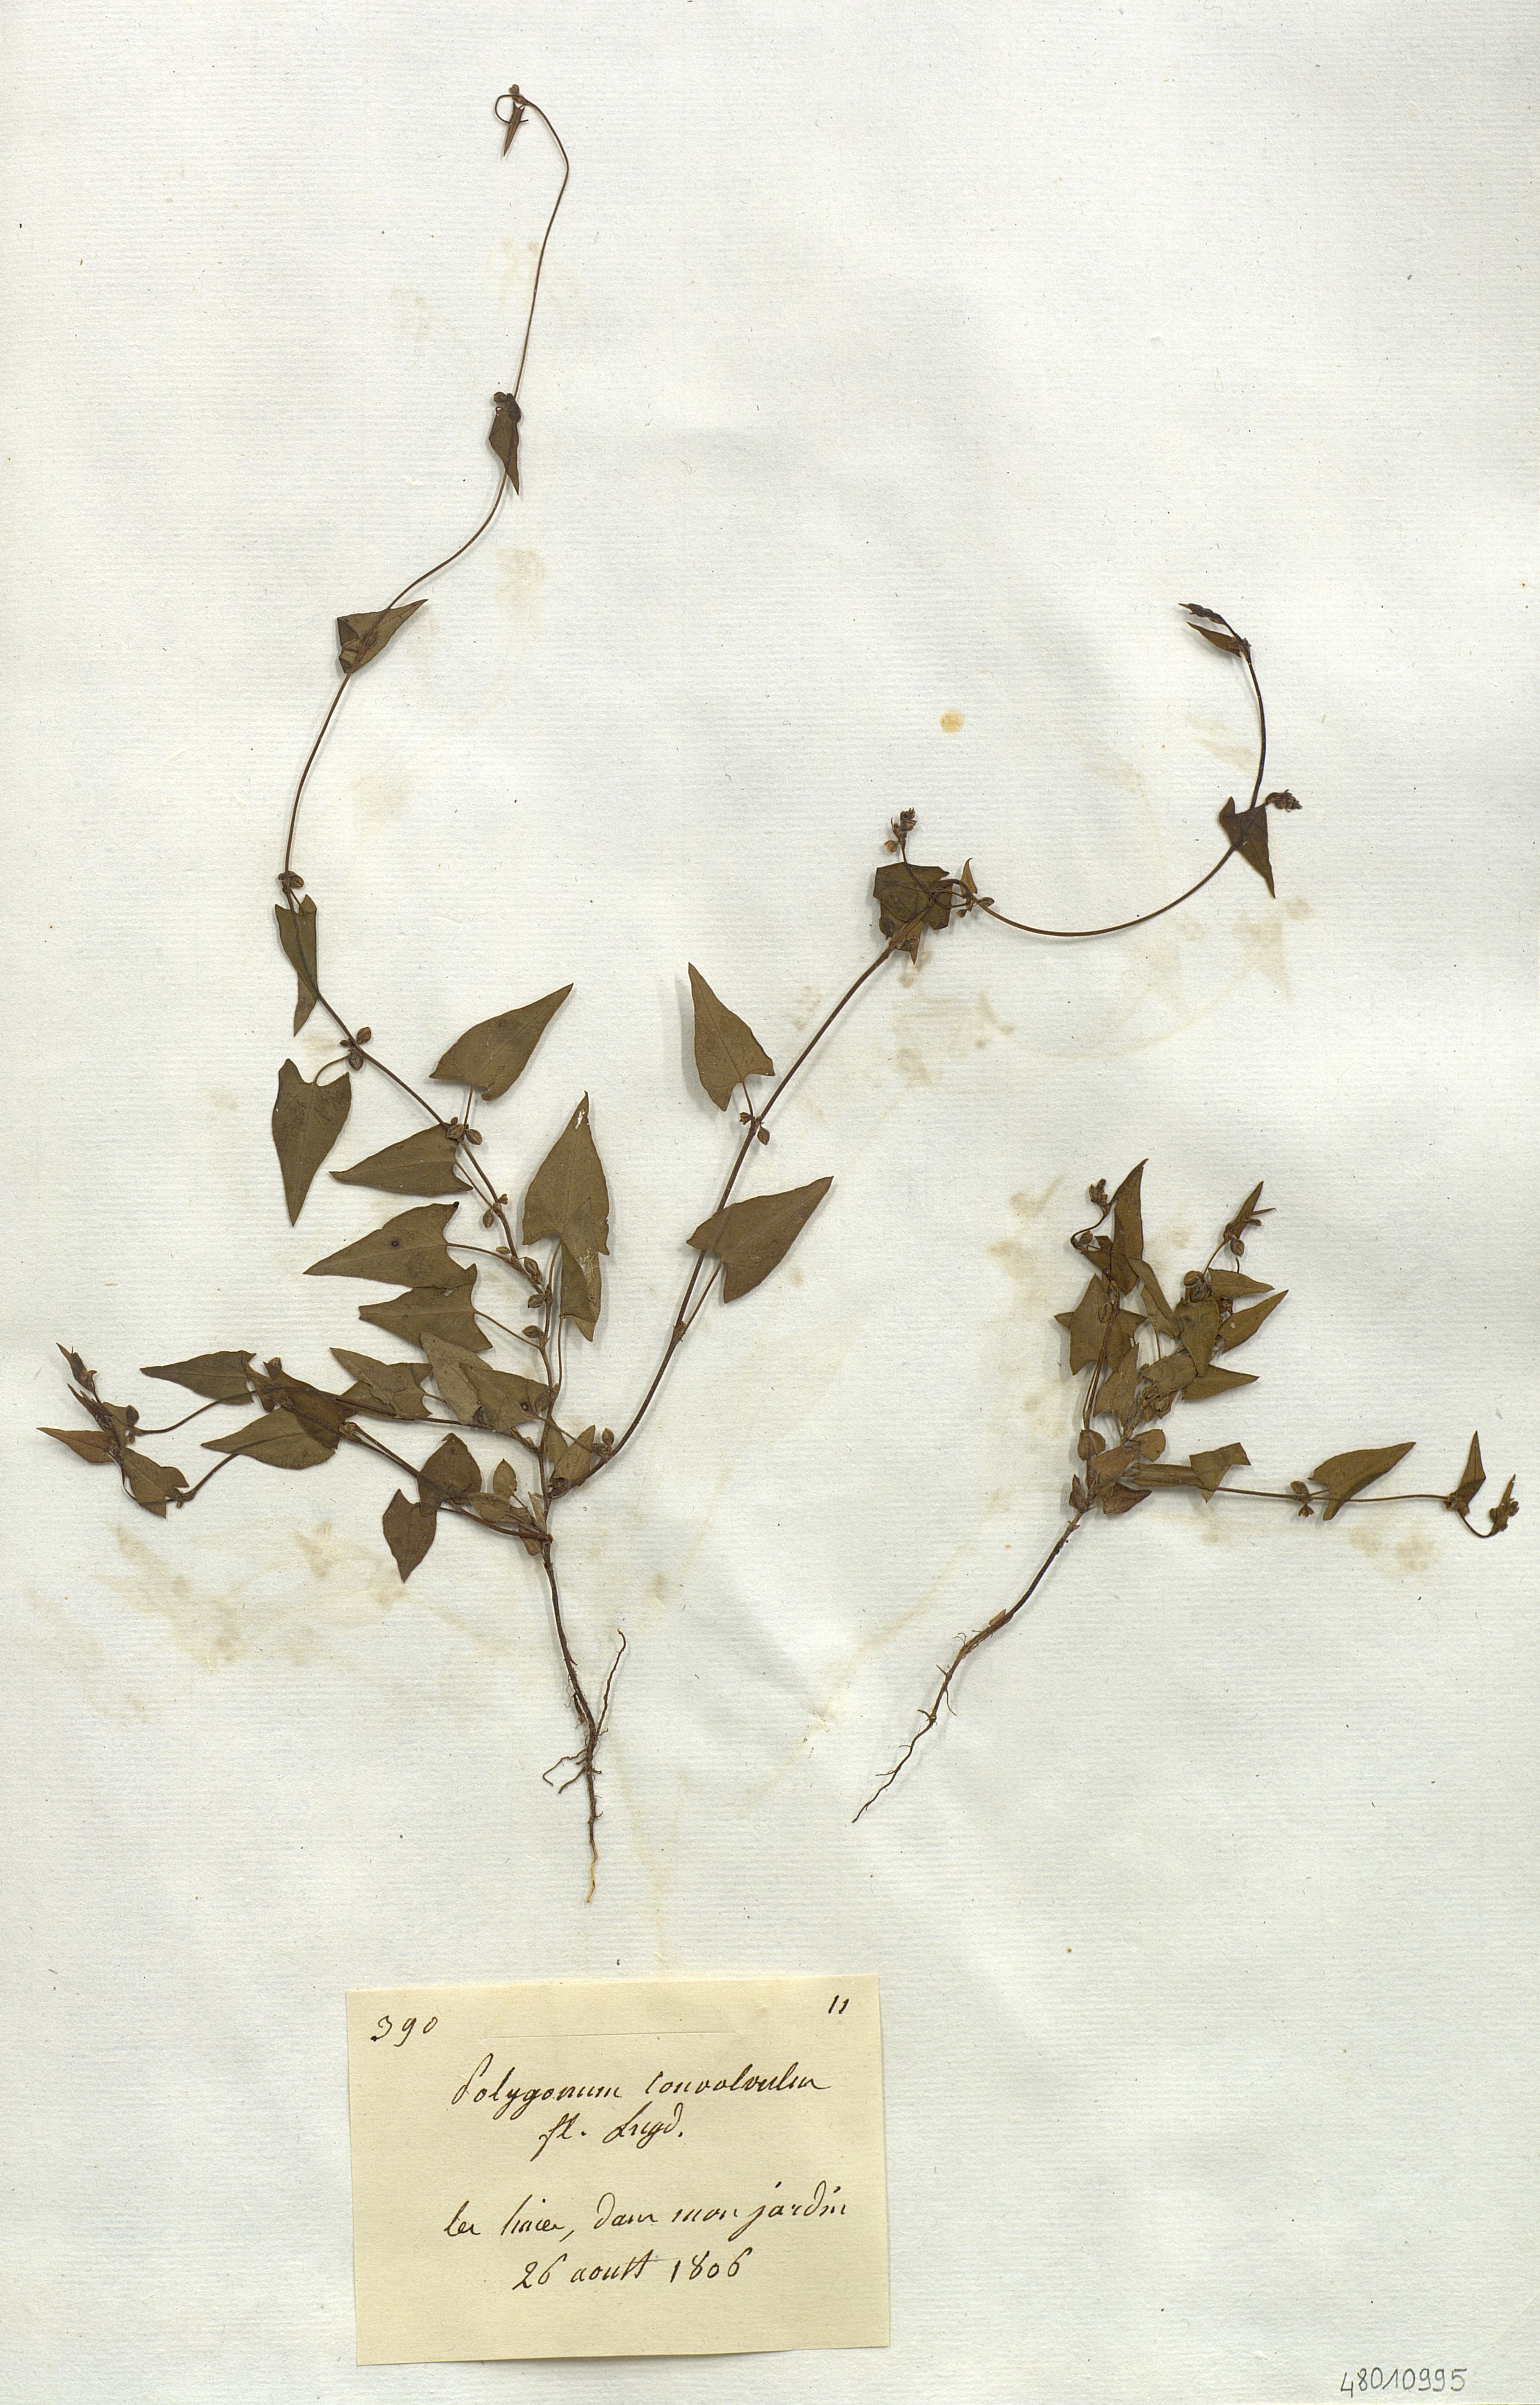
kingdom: Plantae
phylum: Tracheophyta
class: Magnoliopsida
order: Caryophyllales
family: Polygonaceae
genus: Fallopia
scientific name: Fallopia convolvulus
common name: Black bindweed
